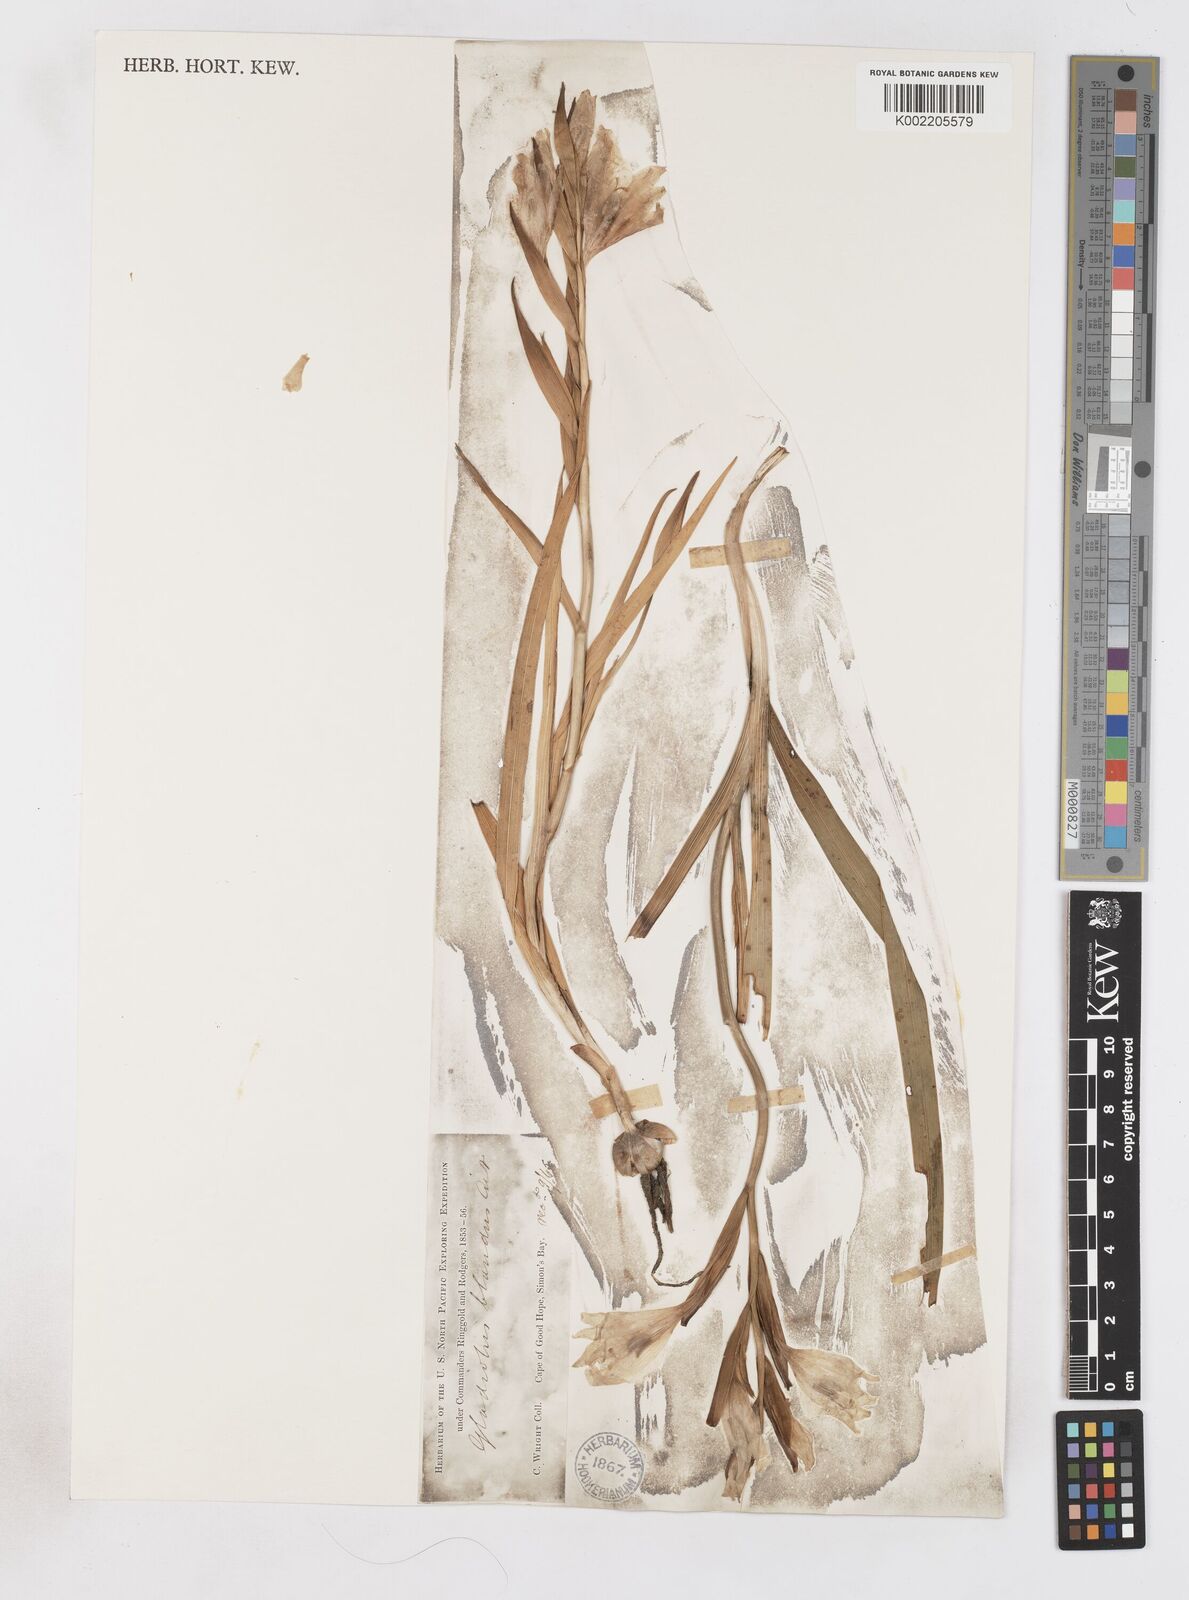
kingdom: Plantae
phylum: Tracheophyta
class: Liliopsida
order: Asparagales
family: Iridaceae
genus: Gladiolus
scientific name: Gladiolus carneus
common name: Painted-lady
